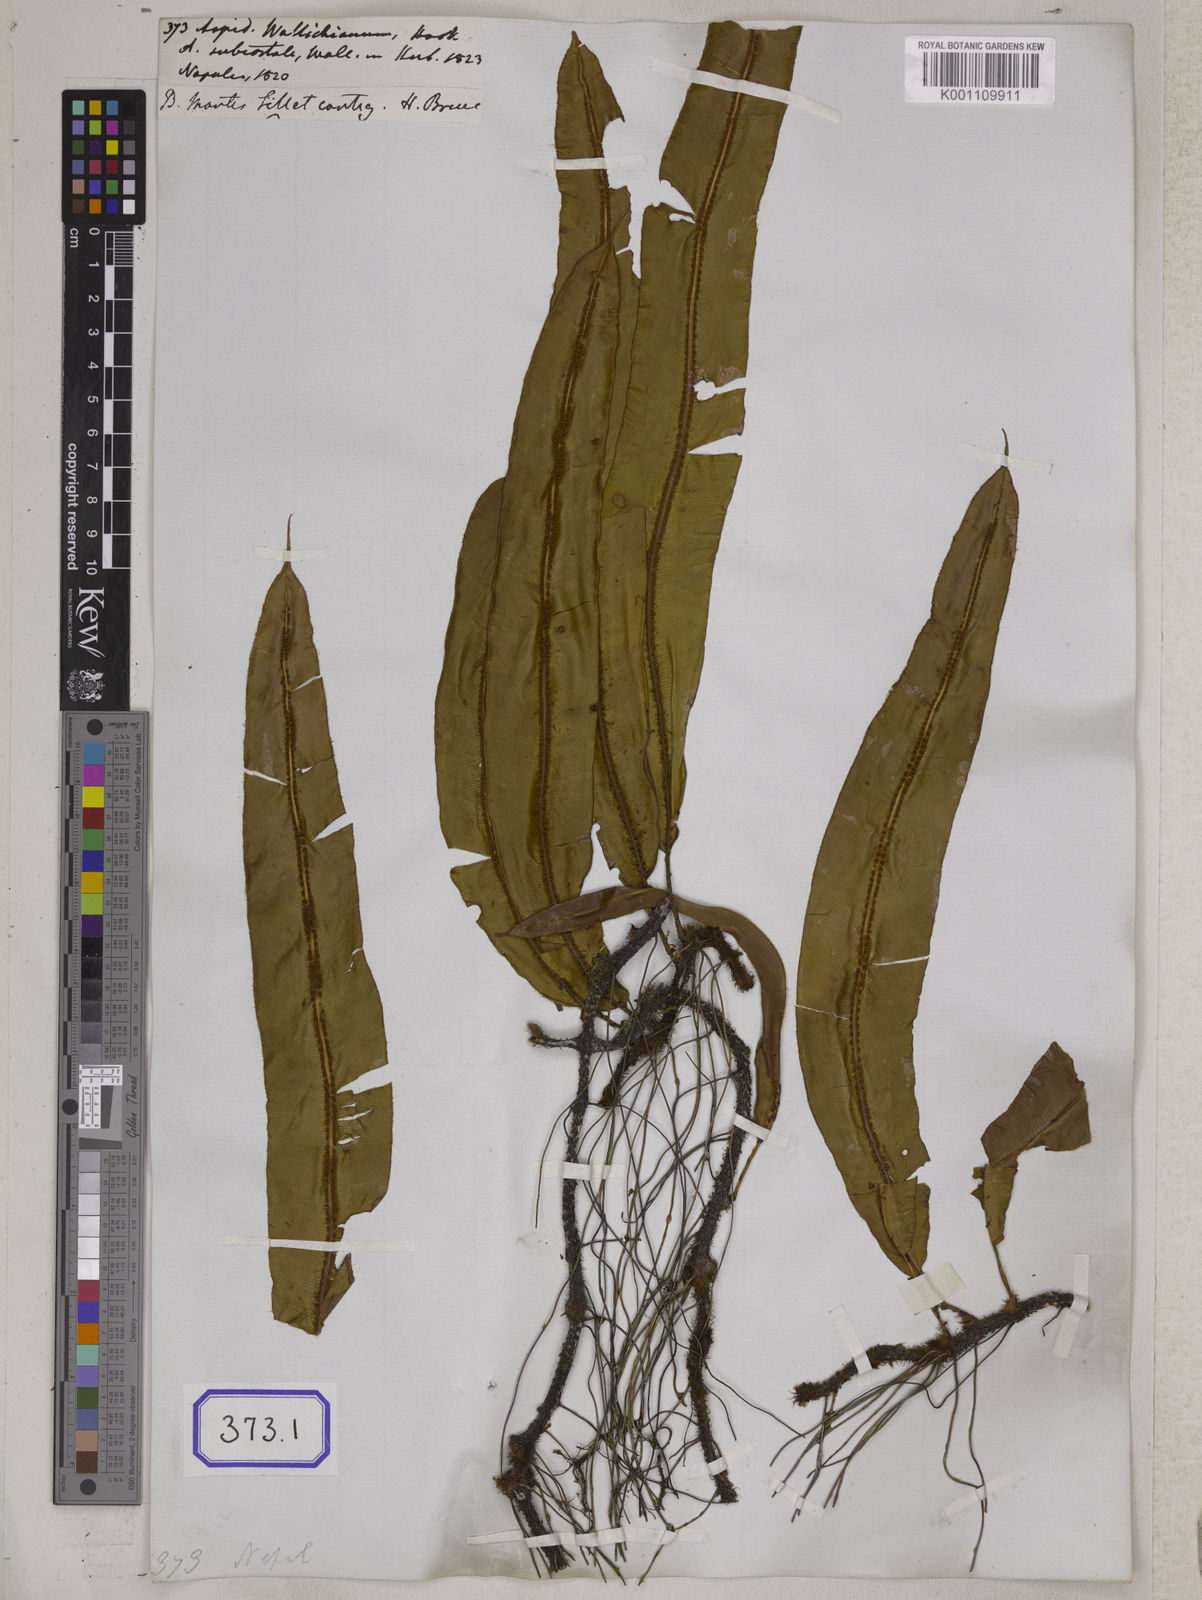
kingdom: Plantae
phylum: Tracheophyta
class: Polypodiopsida
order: Polypodiales
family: Tectariaceae
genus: Tectaria
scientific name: Tectaria Aspidium spec
